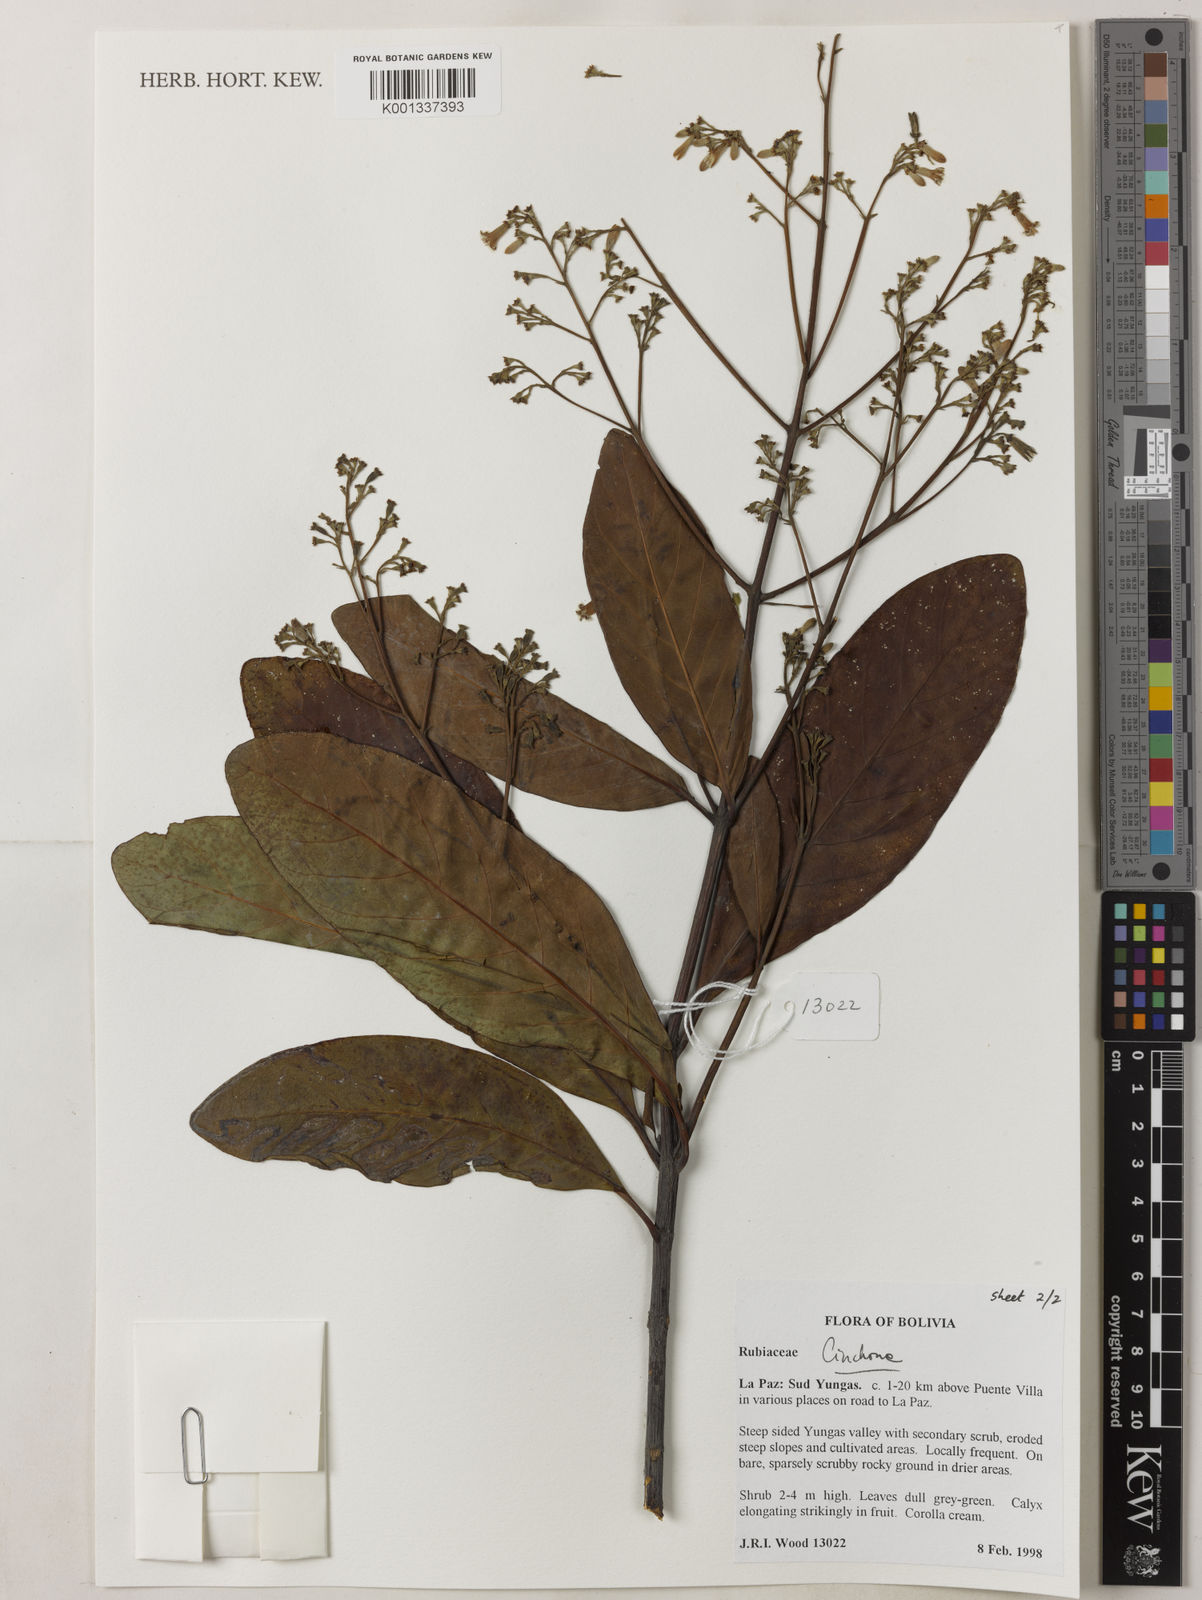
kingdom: Plantae
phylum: Tracheophyta
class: Magnoliopsida
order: Gentianales
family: Rubiaceae
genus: Cinchona
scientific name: Cinchona
